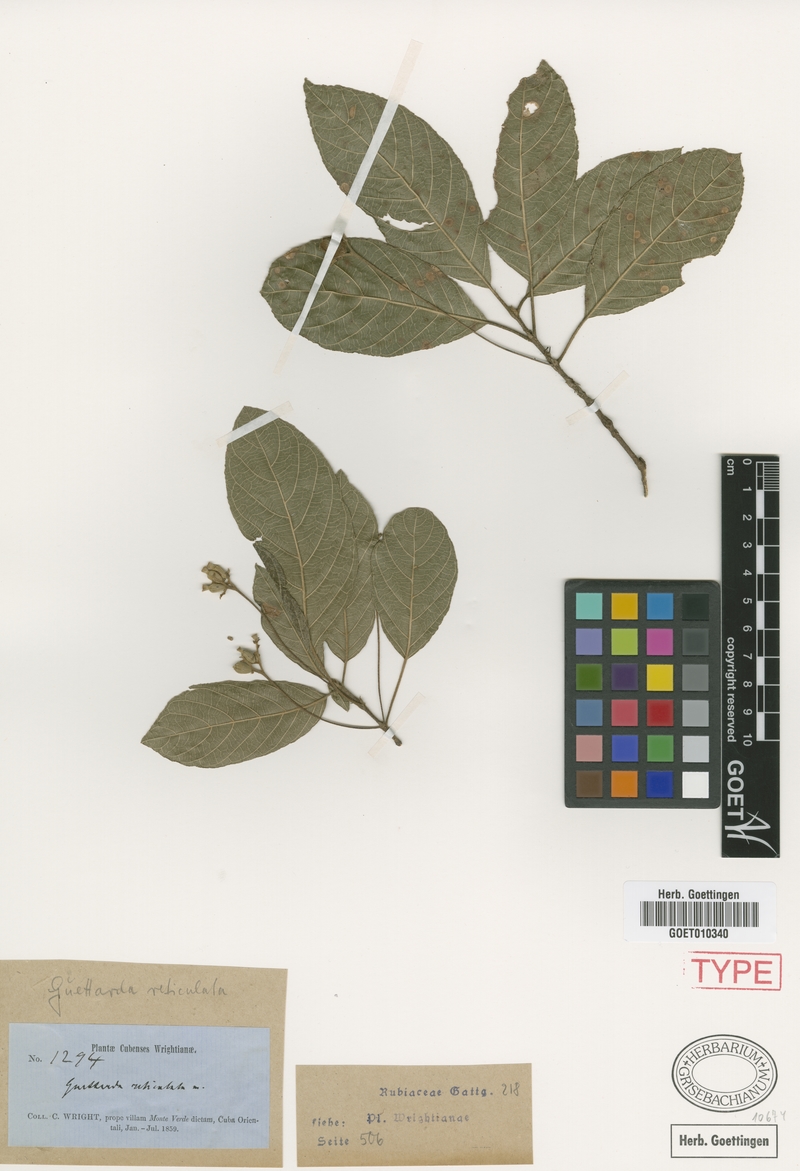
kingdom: Plantae
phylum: Tracheophyta
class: Magnoliopsida
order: Gentianales
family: Rubiaceae
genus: Guettarda
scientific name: Guettarda elliptica
